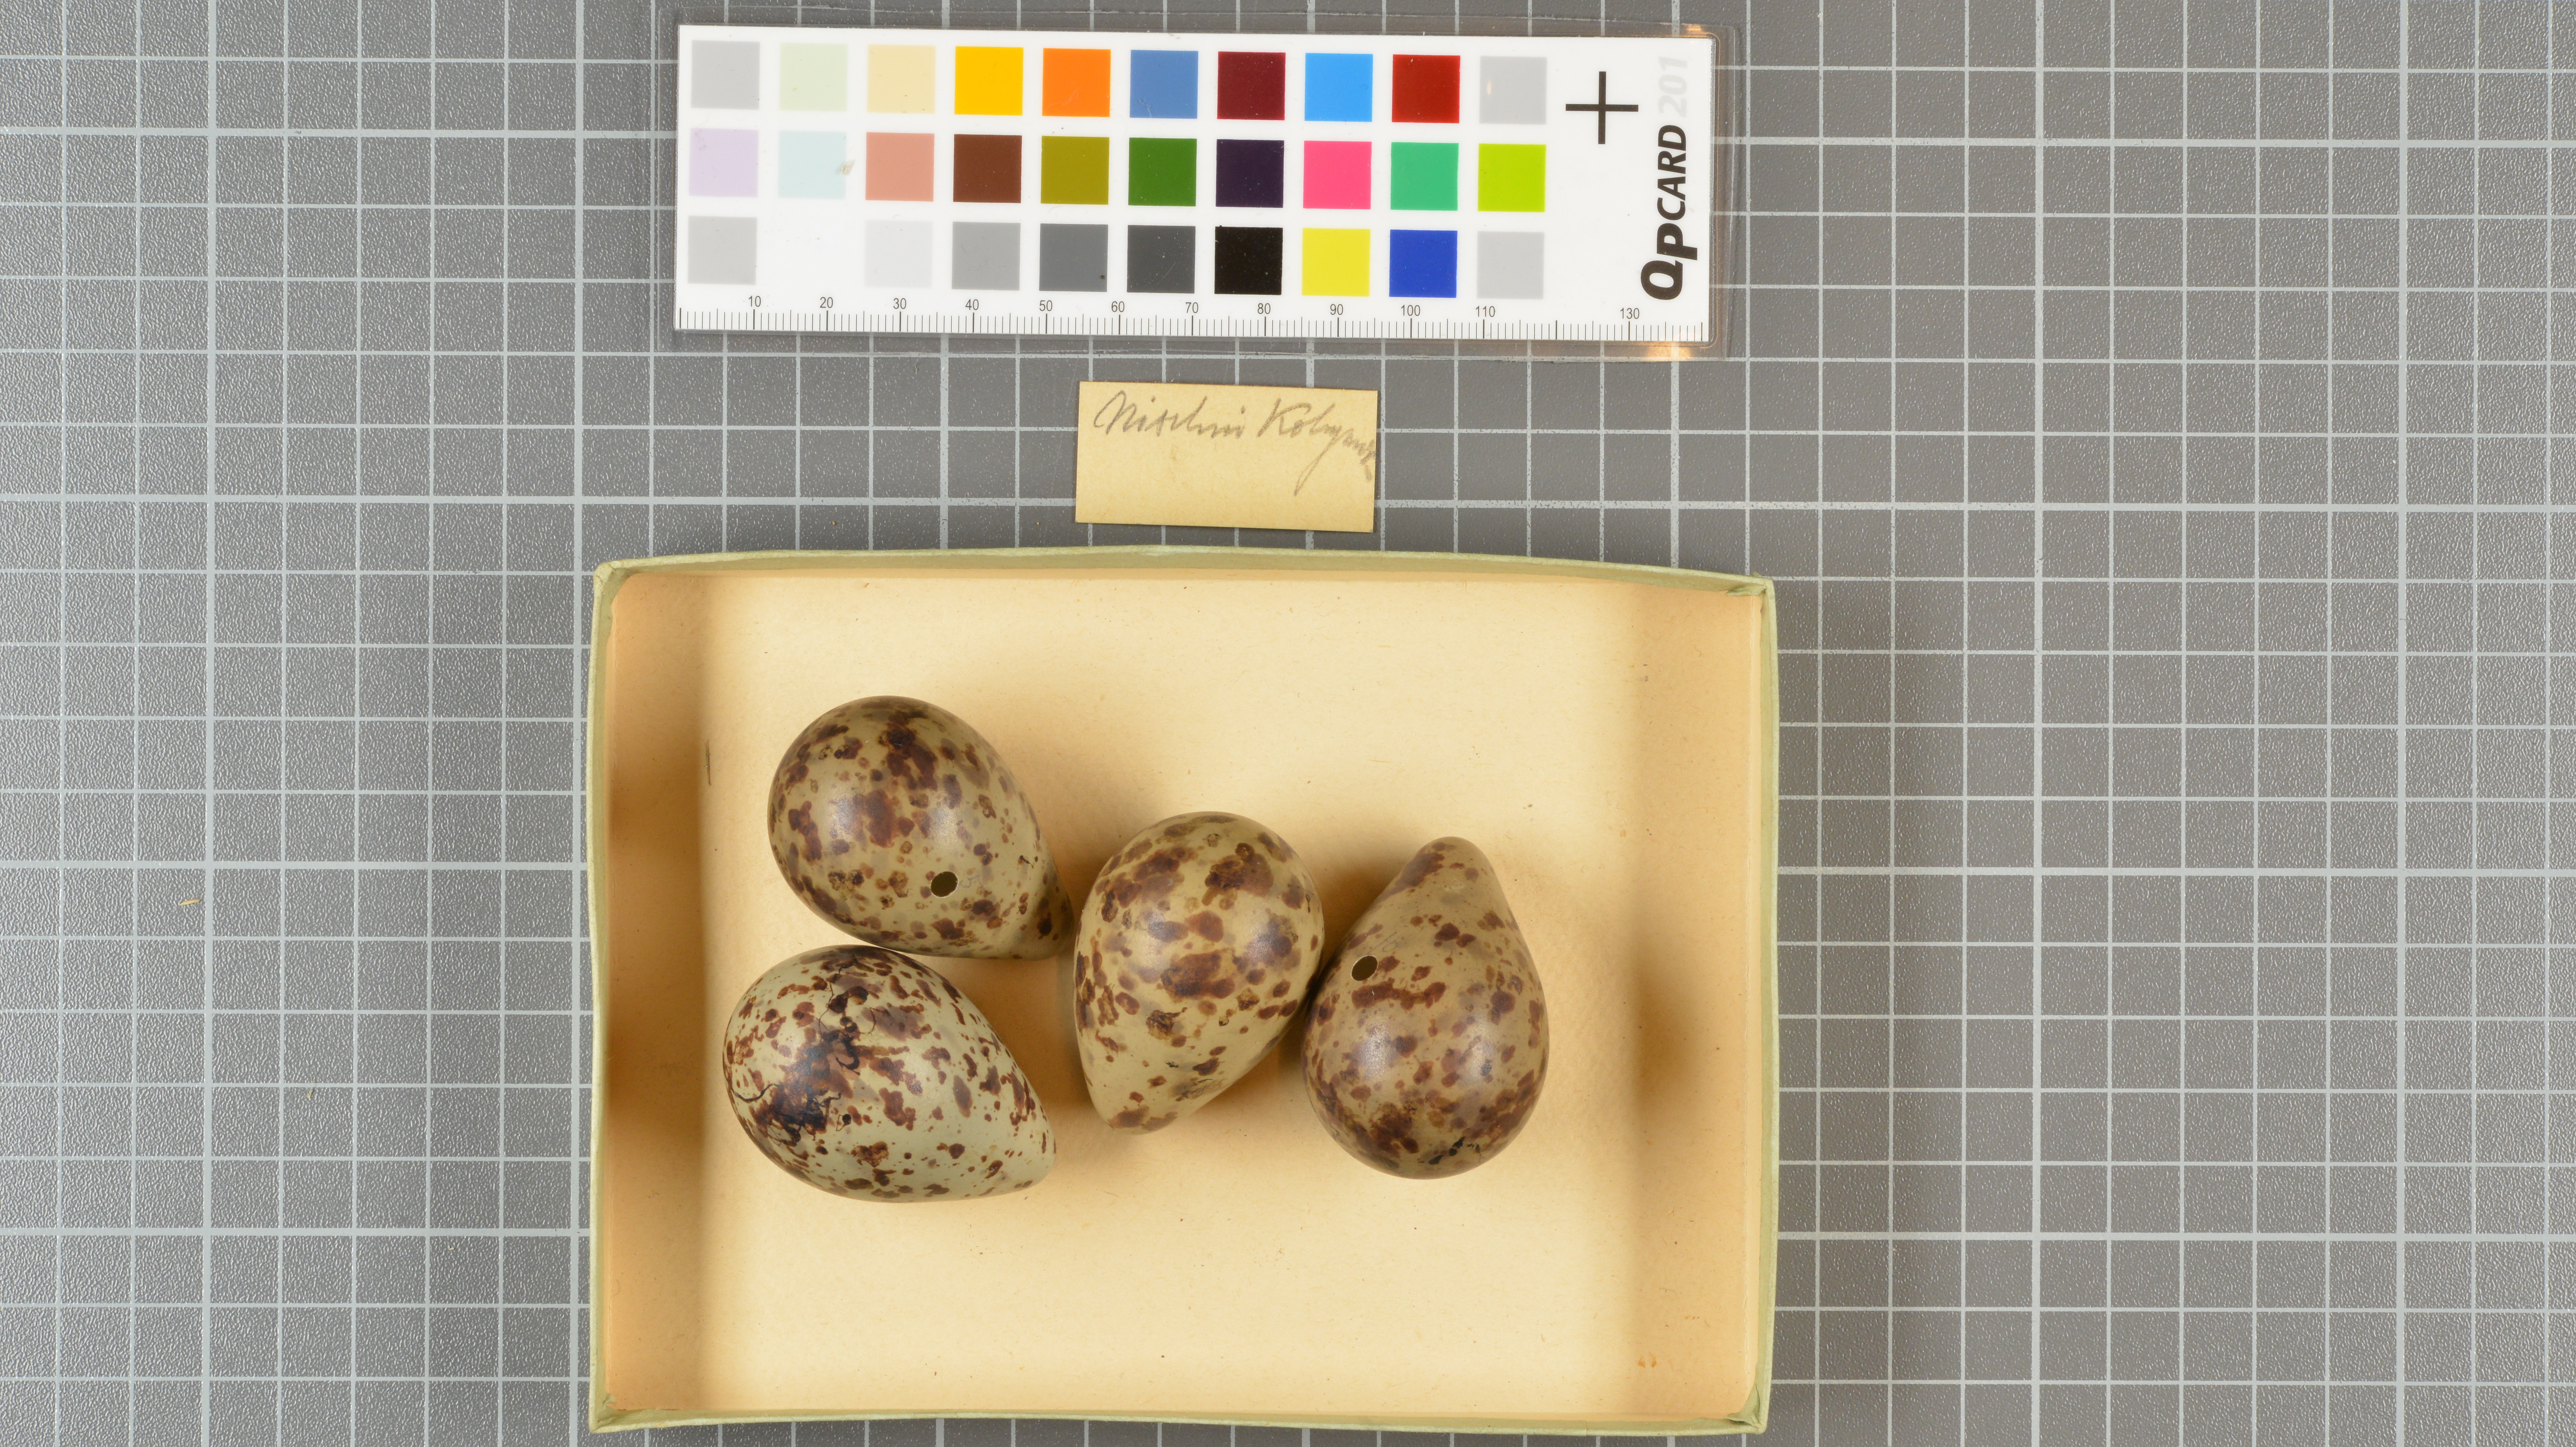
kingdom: Animalia
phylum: Chordata
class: Aves
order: Charadriiformes
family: Scolopacidae
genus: Tringa
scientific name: Tringa erythropus
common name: Spotted redshank
